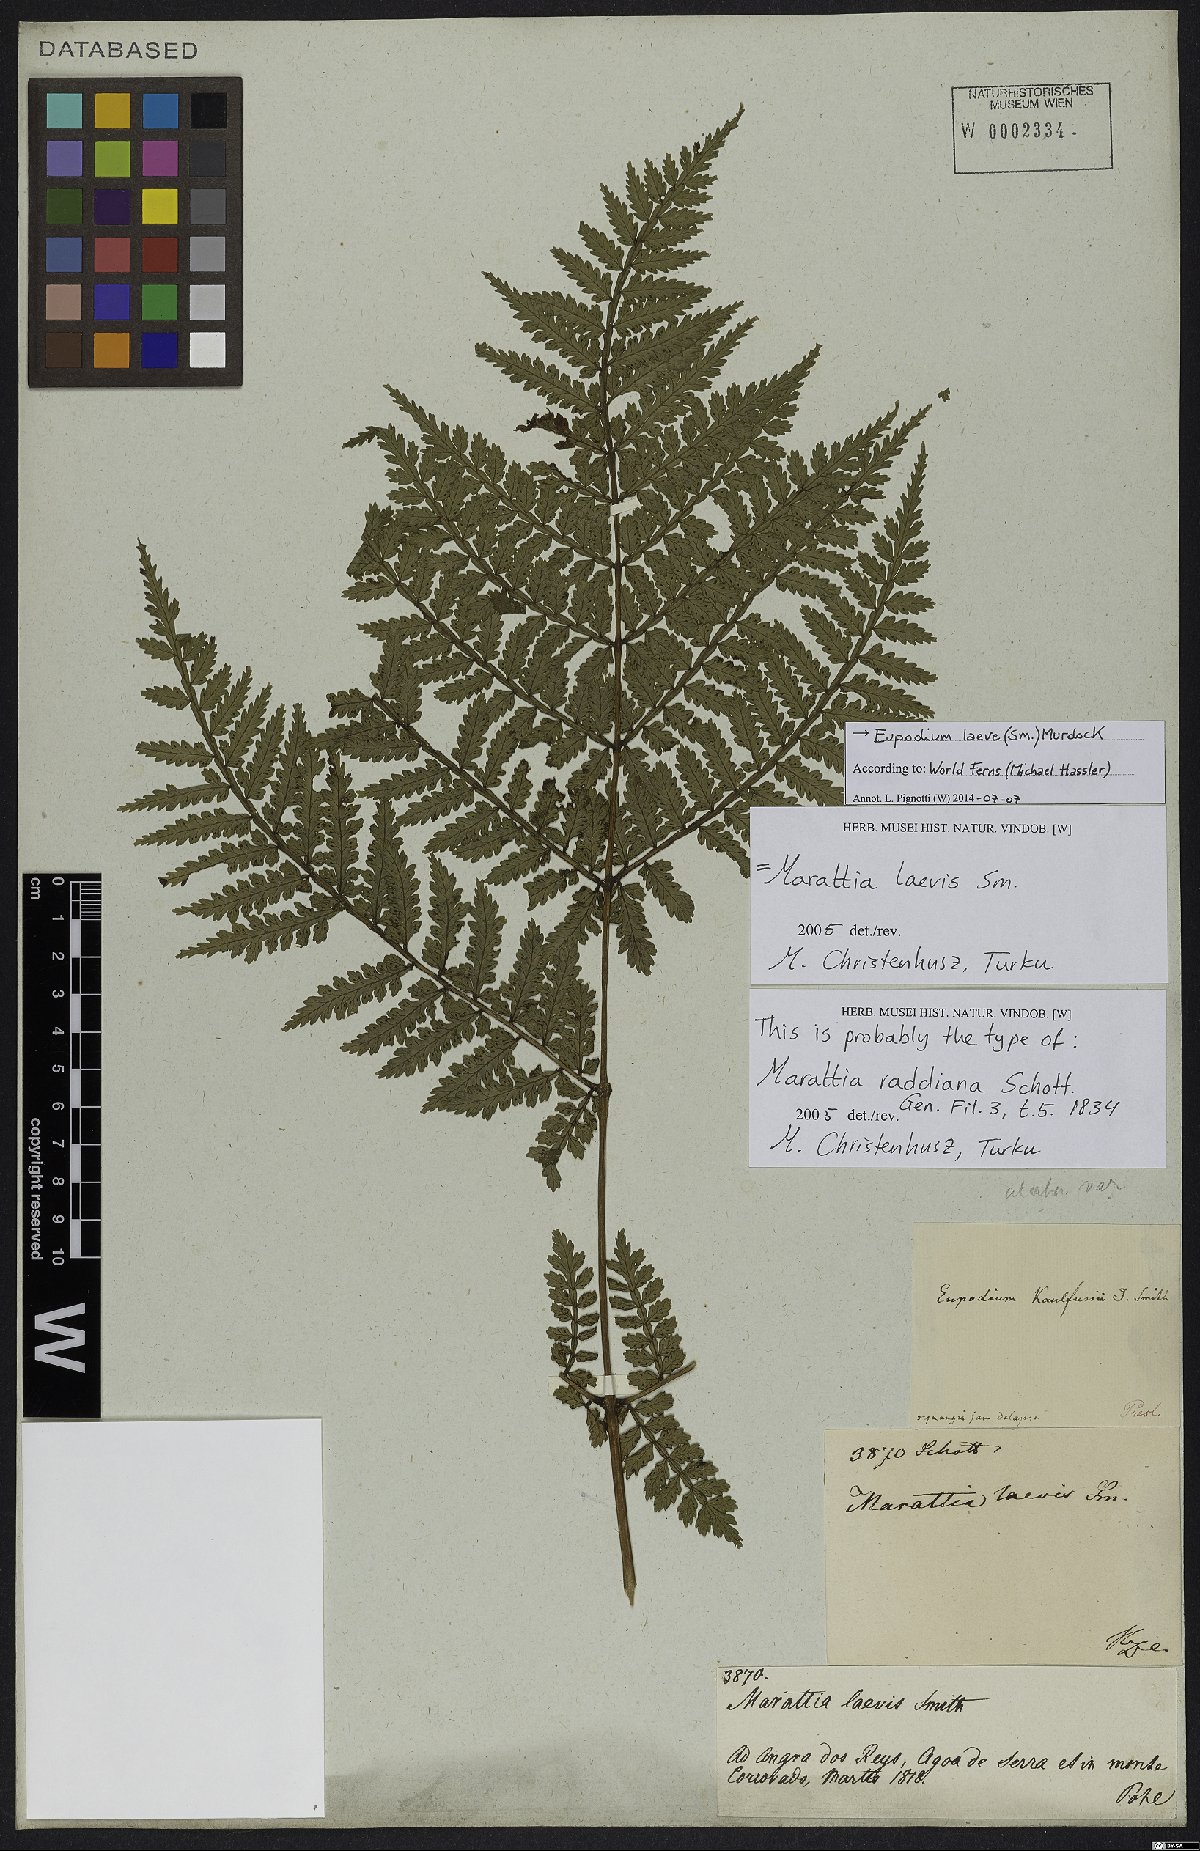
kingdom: Plantae
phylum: Tracheophyta
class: Polypodiopsida
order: Marattiales
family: Marattiaceae
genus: Eupodium
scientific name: Eupodium laeve
